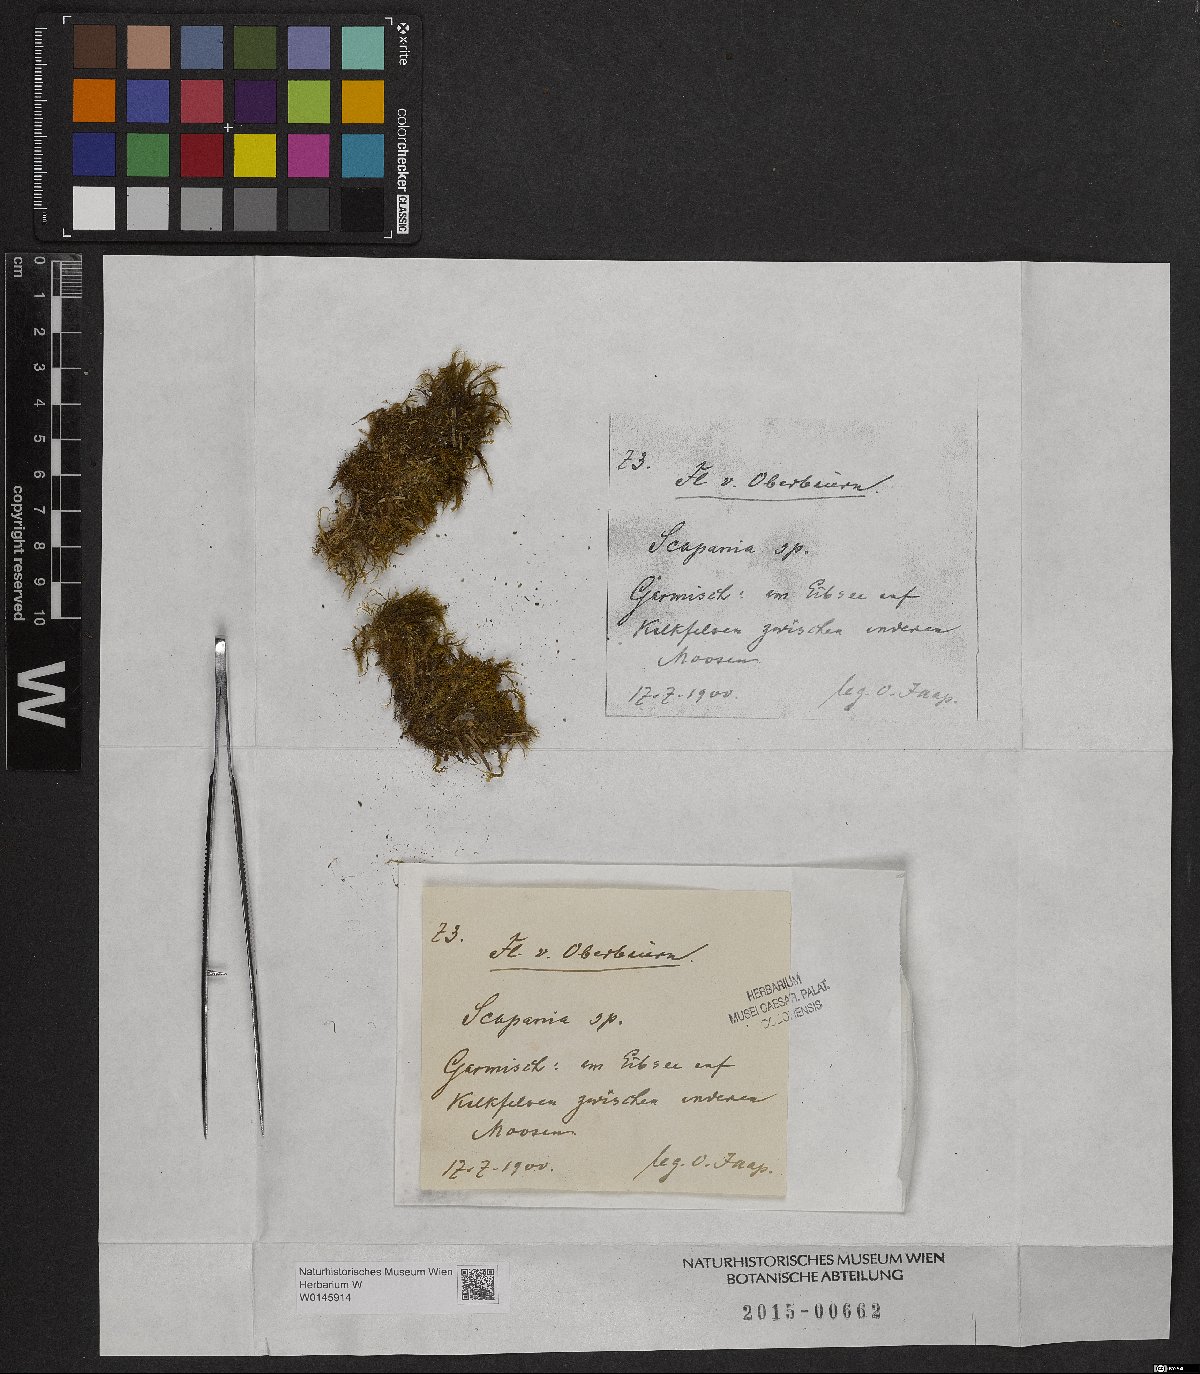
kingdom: Plantae
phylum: Marchantiophyta
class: Jungermanniopsida
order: Jungermanniales
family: Scapaniaceae
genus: Scapania
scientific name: Scapania
